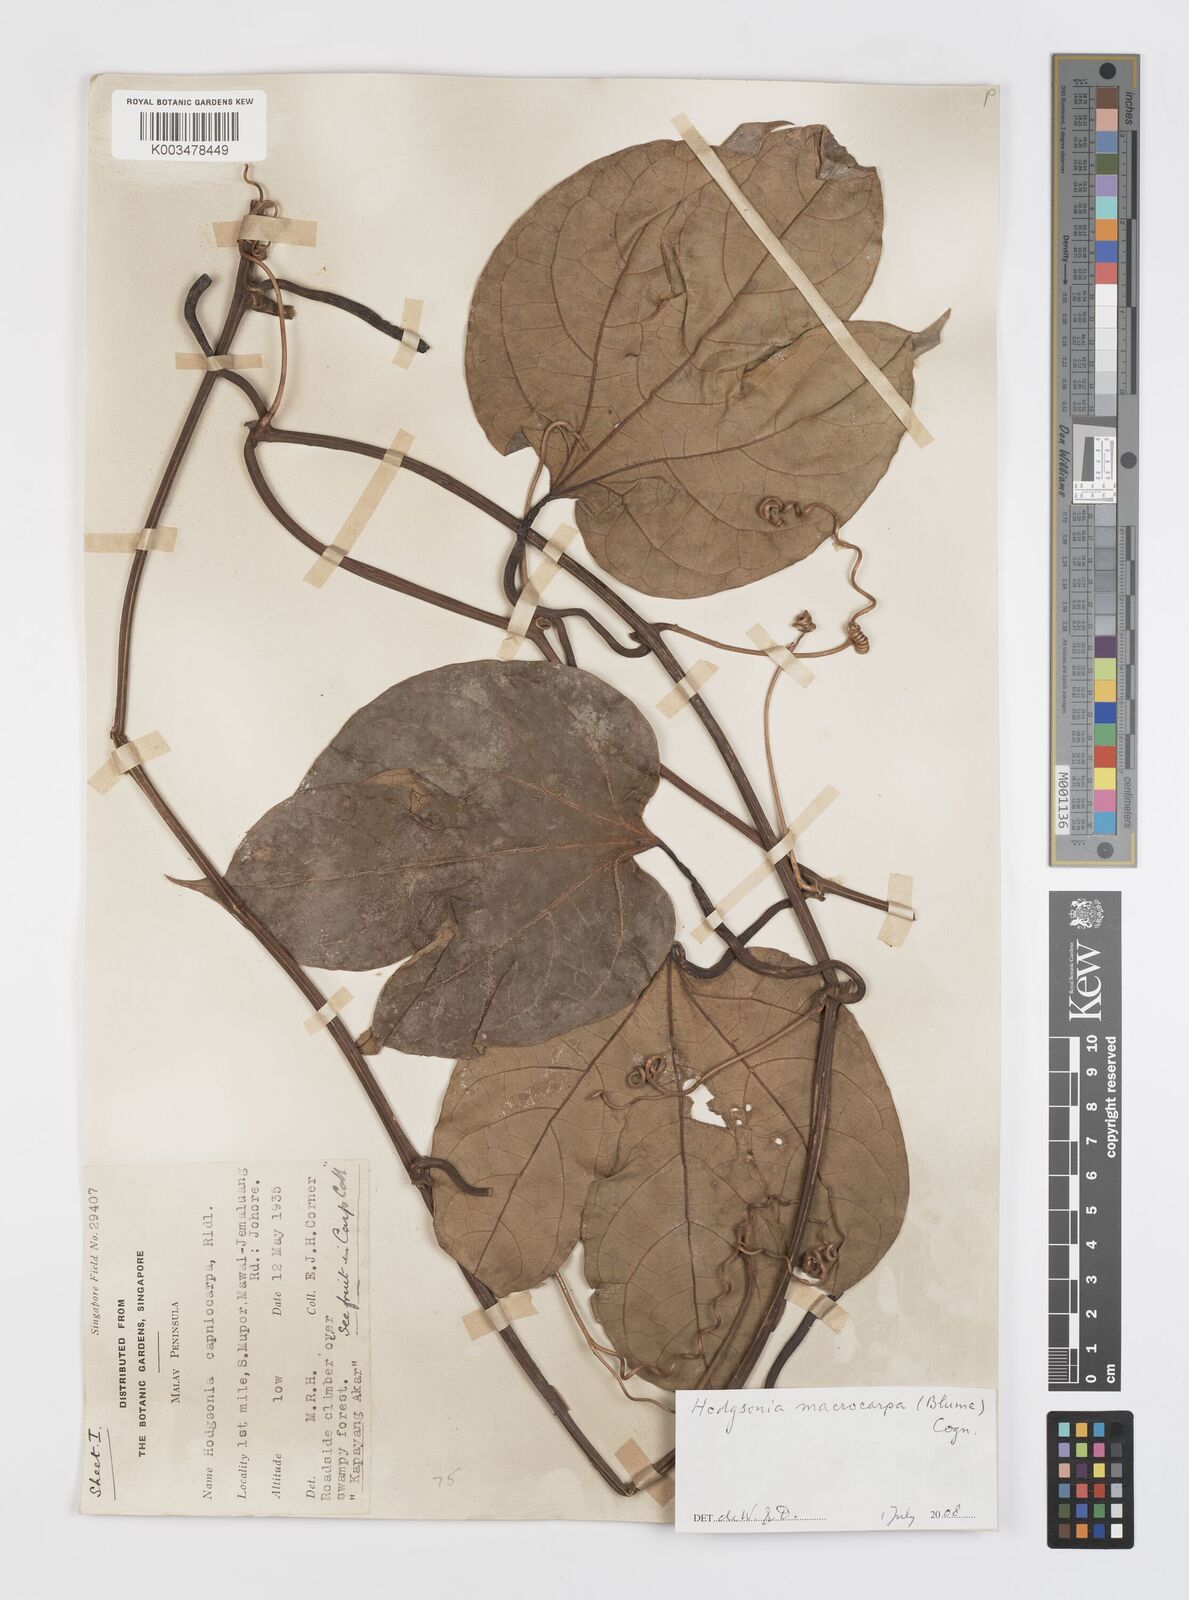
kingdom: Plantae
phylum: Tracheophyta
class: Magnoliopsida
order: Cucurbitales
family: Cucurbitaceae
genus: Hodgsonia
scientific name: Hodgsonia macrocarpa
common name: Chinese lardfruit
